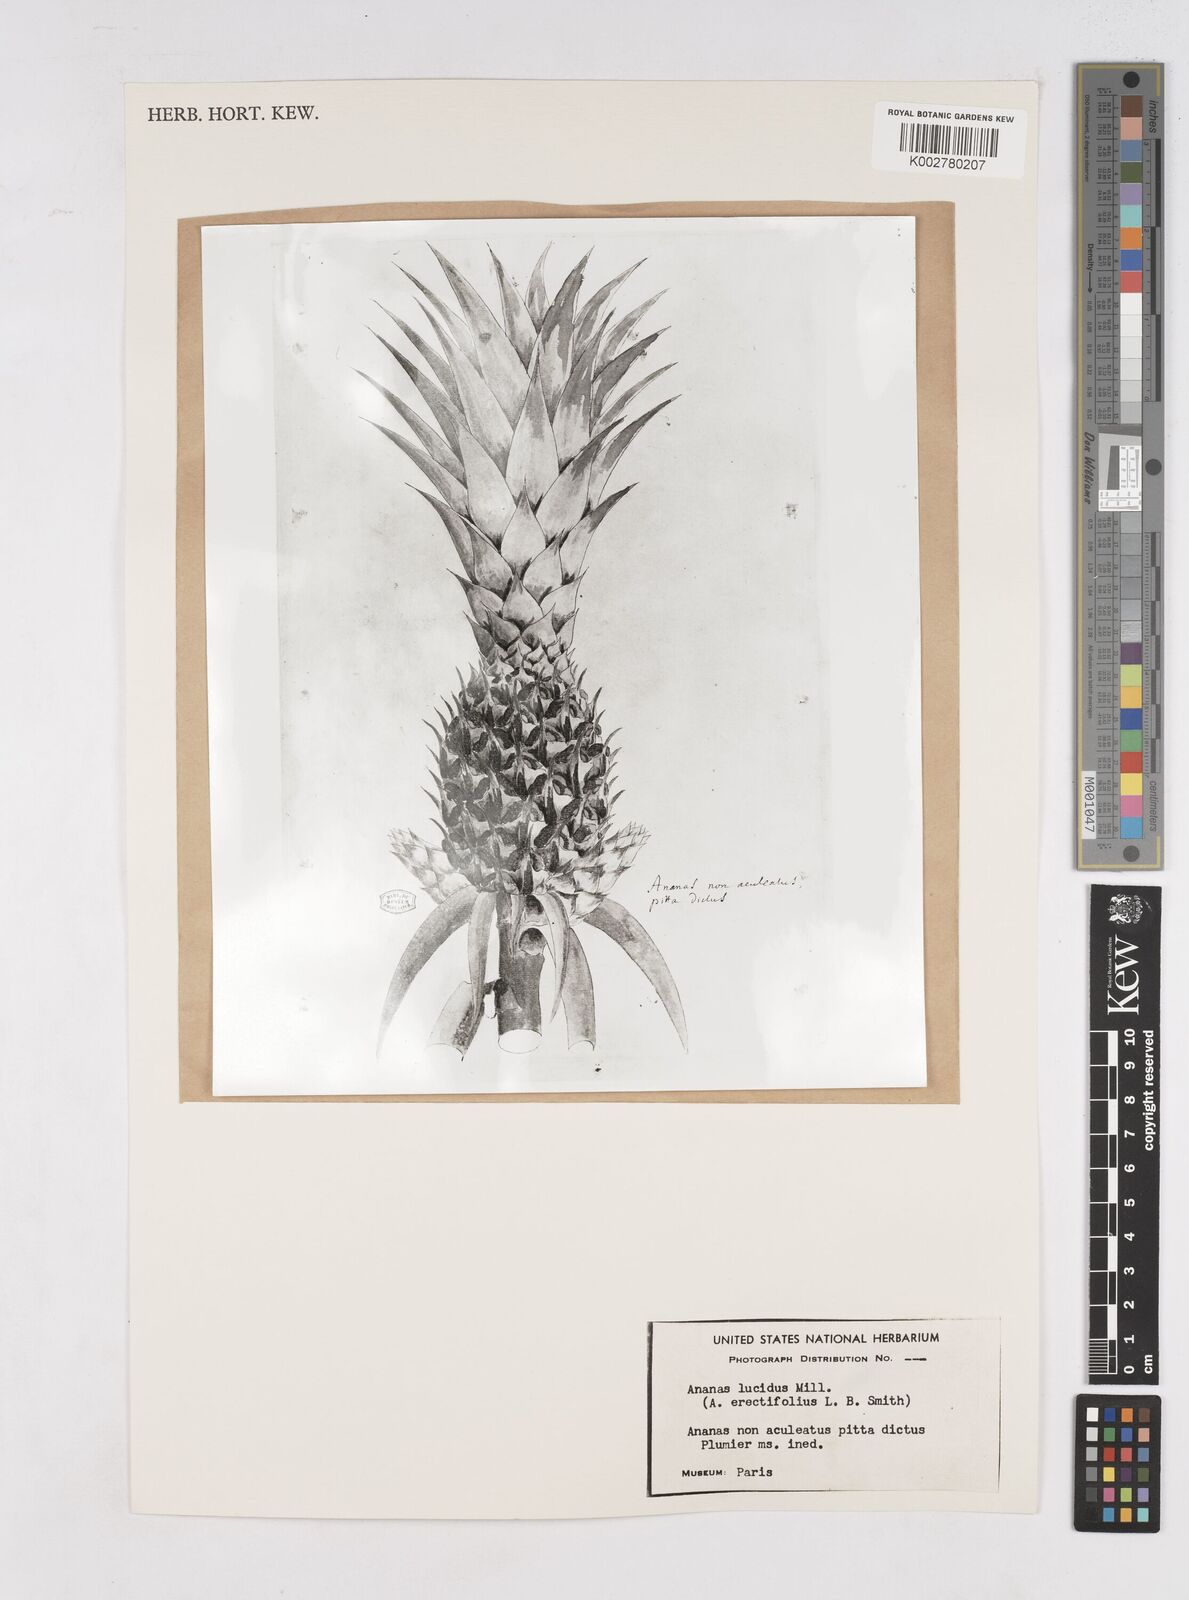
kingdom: Plantae
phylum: Tracheophyta
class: Liliopsida
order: Poales
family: Bromeliaceae
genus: Ananas
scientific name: Ananas
